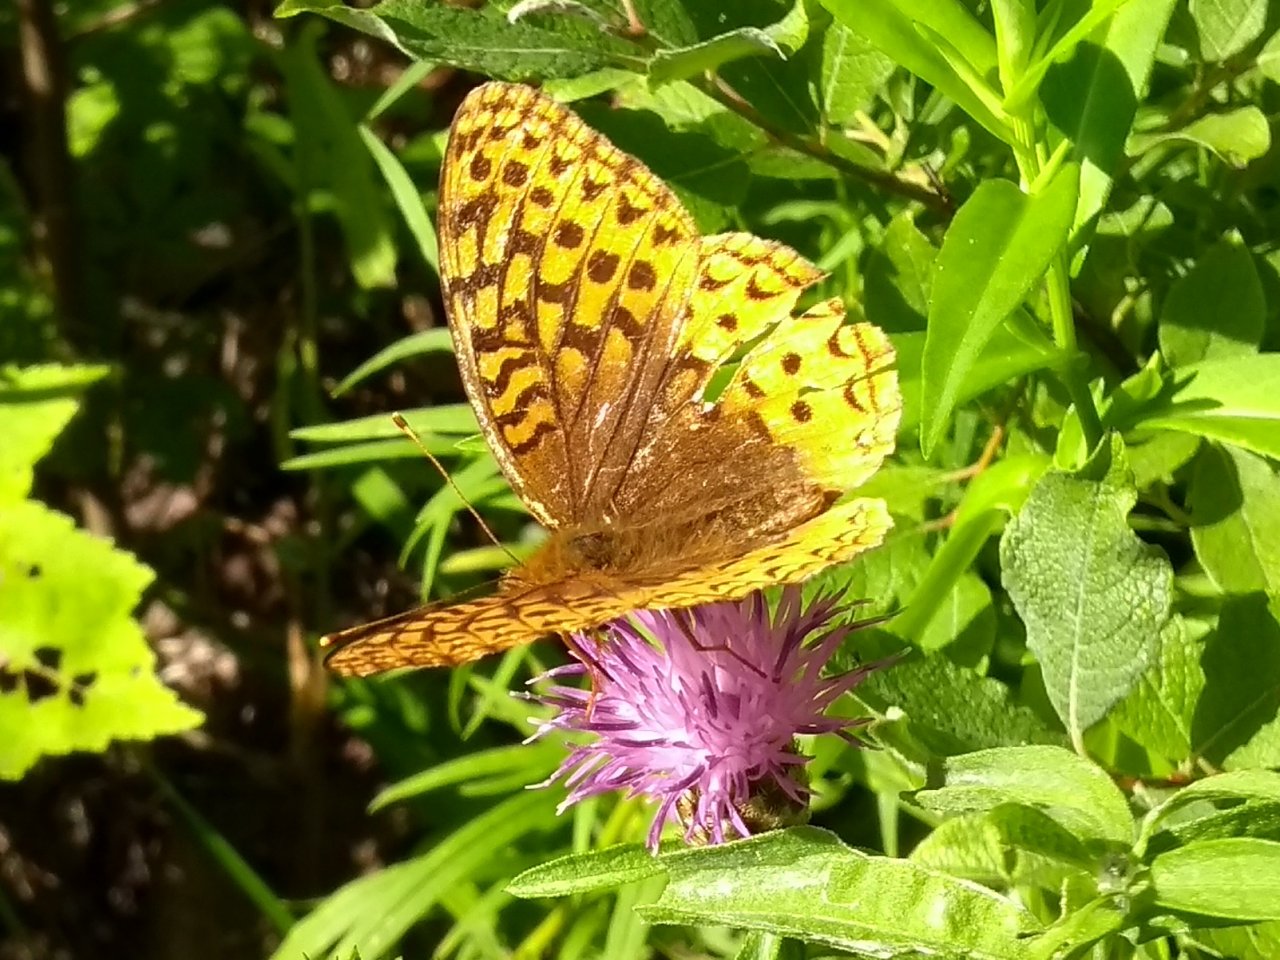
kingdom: Animalia
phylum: Arthropoda
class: Insecta
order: Lepidoptera
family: Nymphalidae
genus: Speyeria
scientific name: Speyeria cybele
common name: Great Spangled Fritillary
